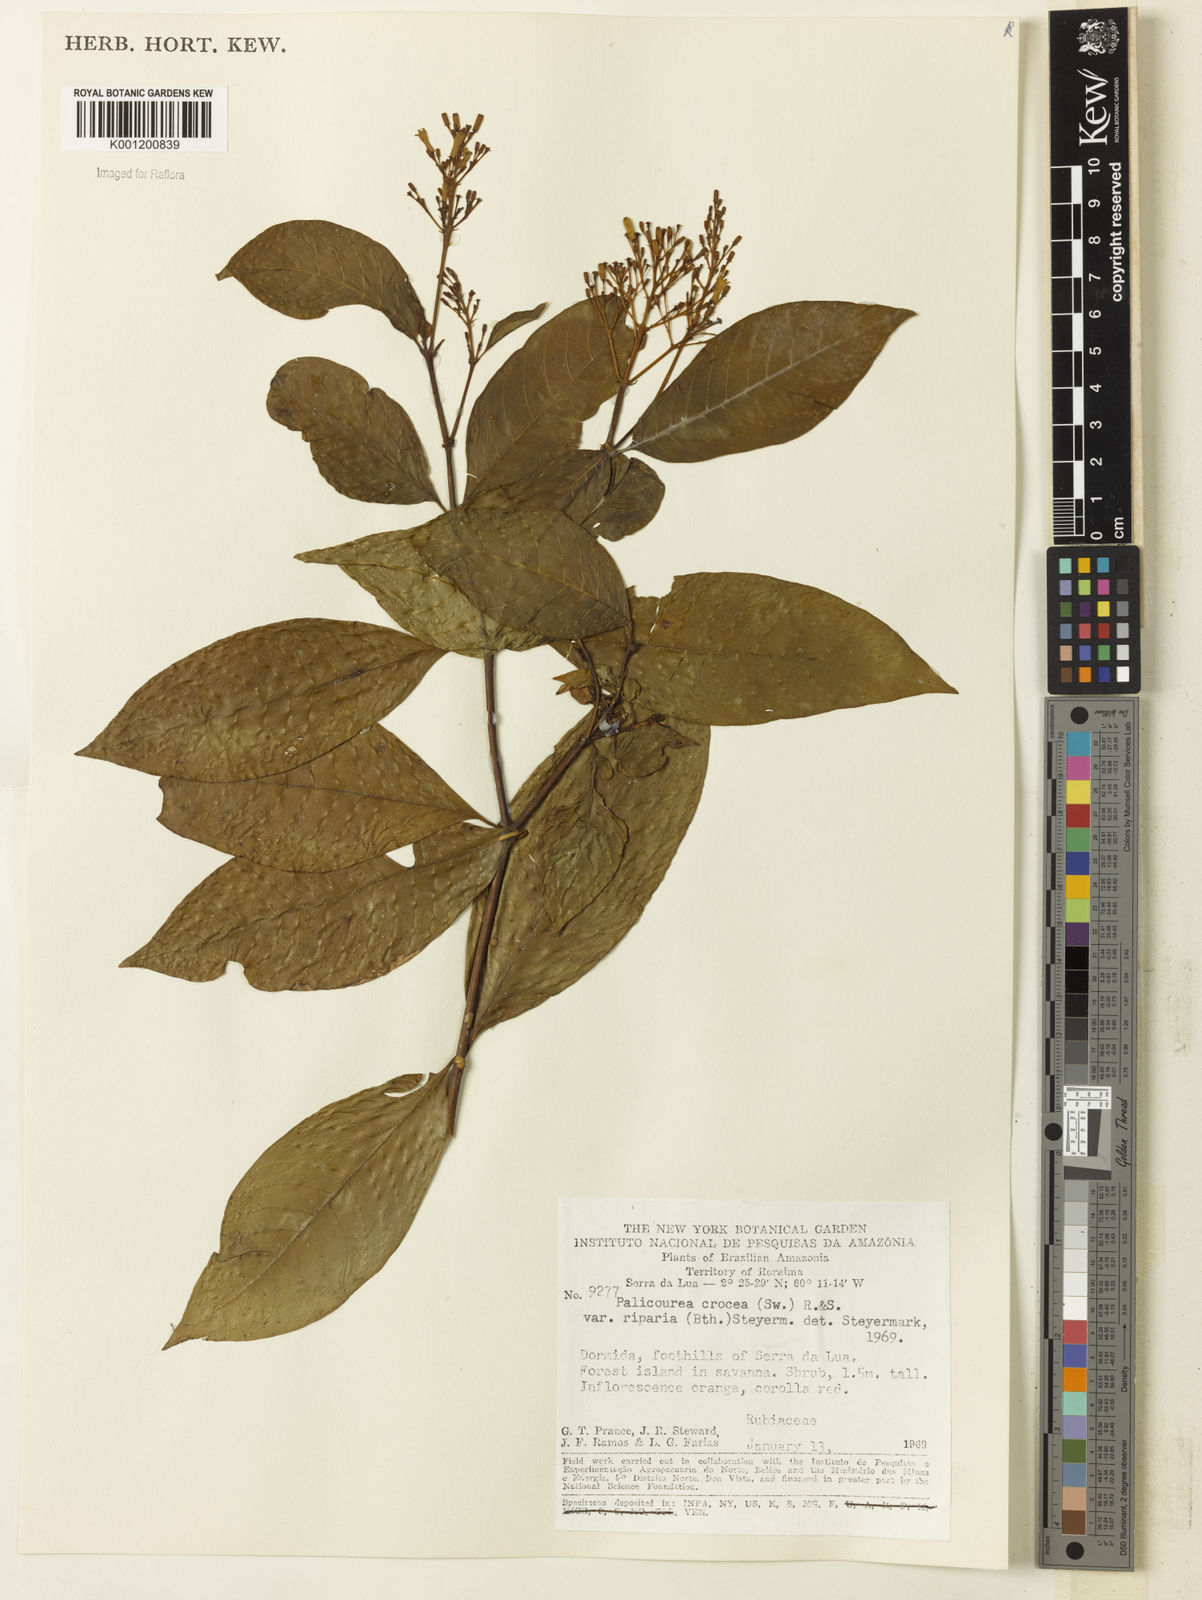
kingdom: Plantae
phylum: Tracheophyta
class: Magnoliopsida
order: Gentianales
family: Rubiaceae
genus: Palicourea
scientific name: Palicourea croceoides
